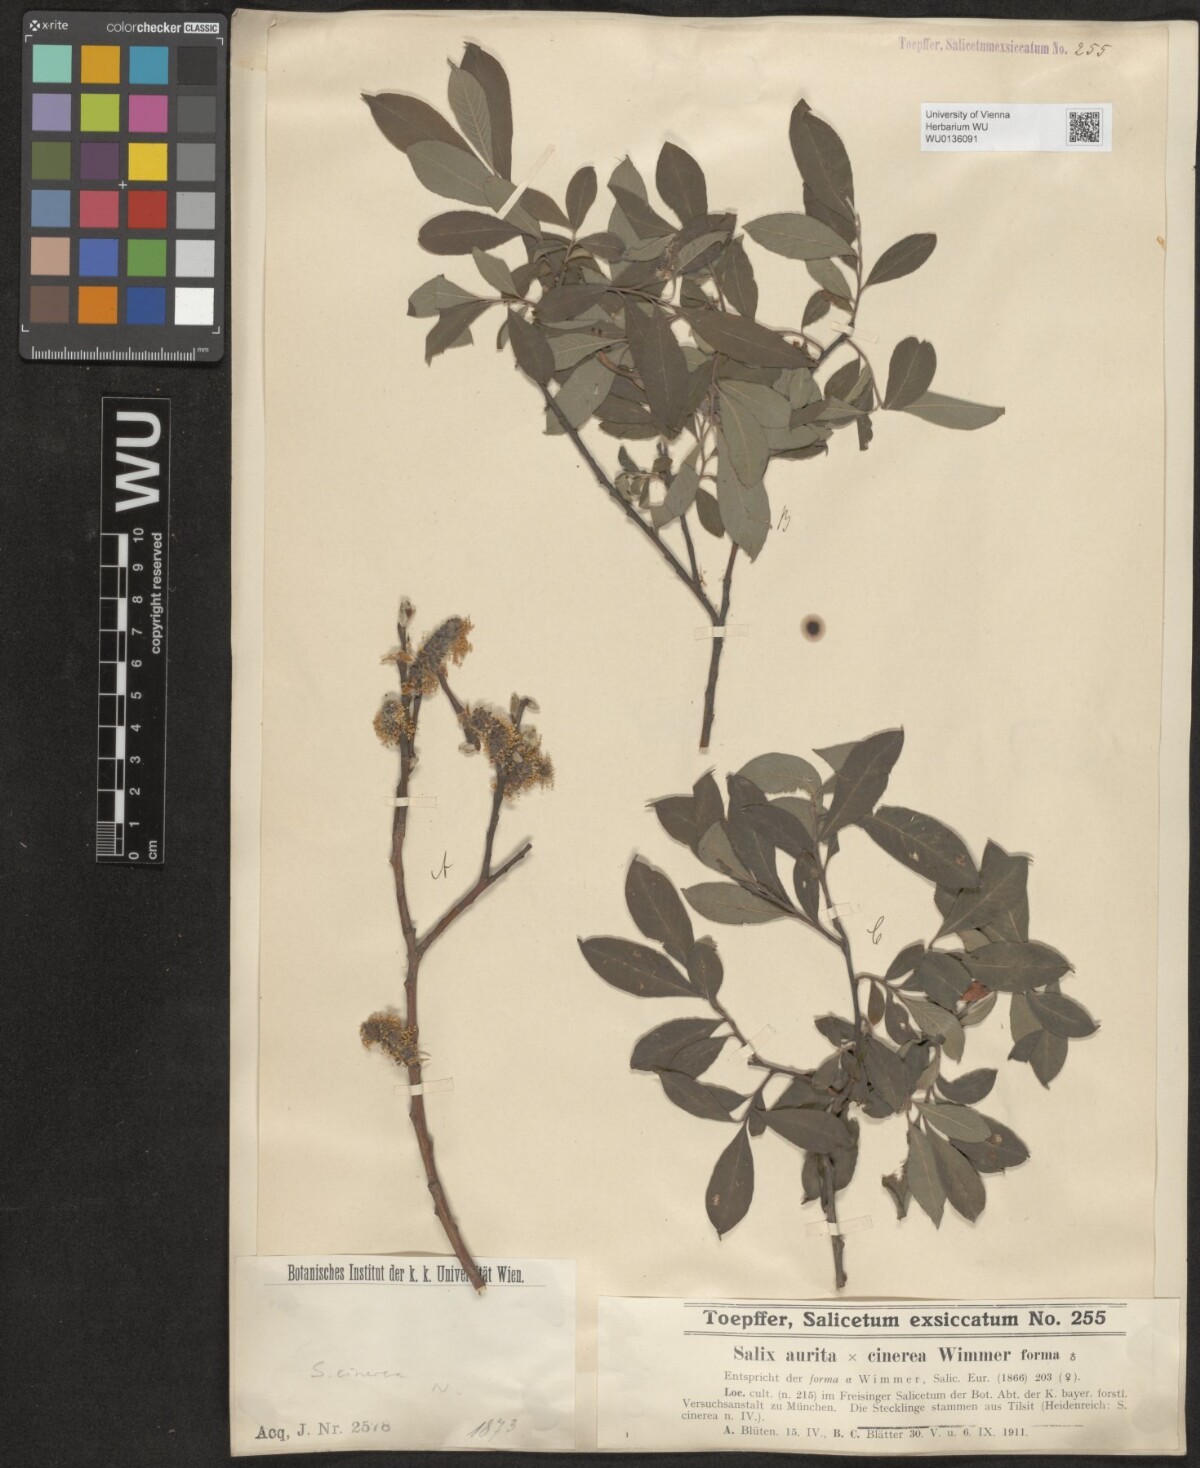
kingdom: Plantae
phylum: Tracheophyta
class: Magnoliopsida
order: Malpighiales
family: Salicaceae
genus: Salix
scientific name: Salix cinerea
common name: Common sallow
